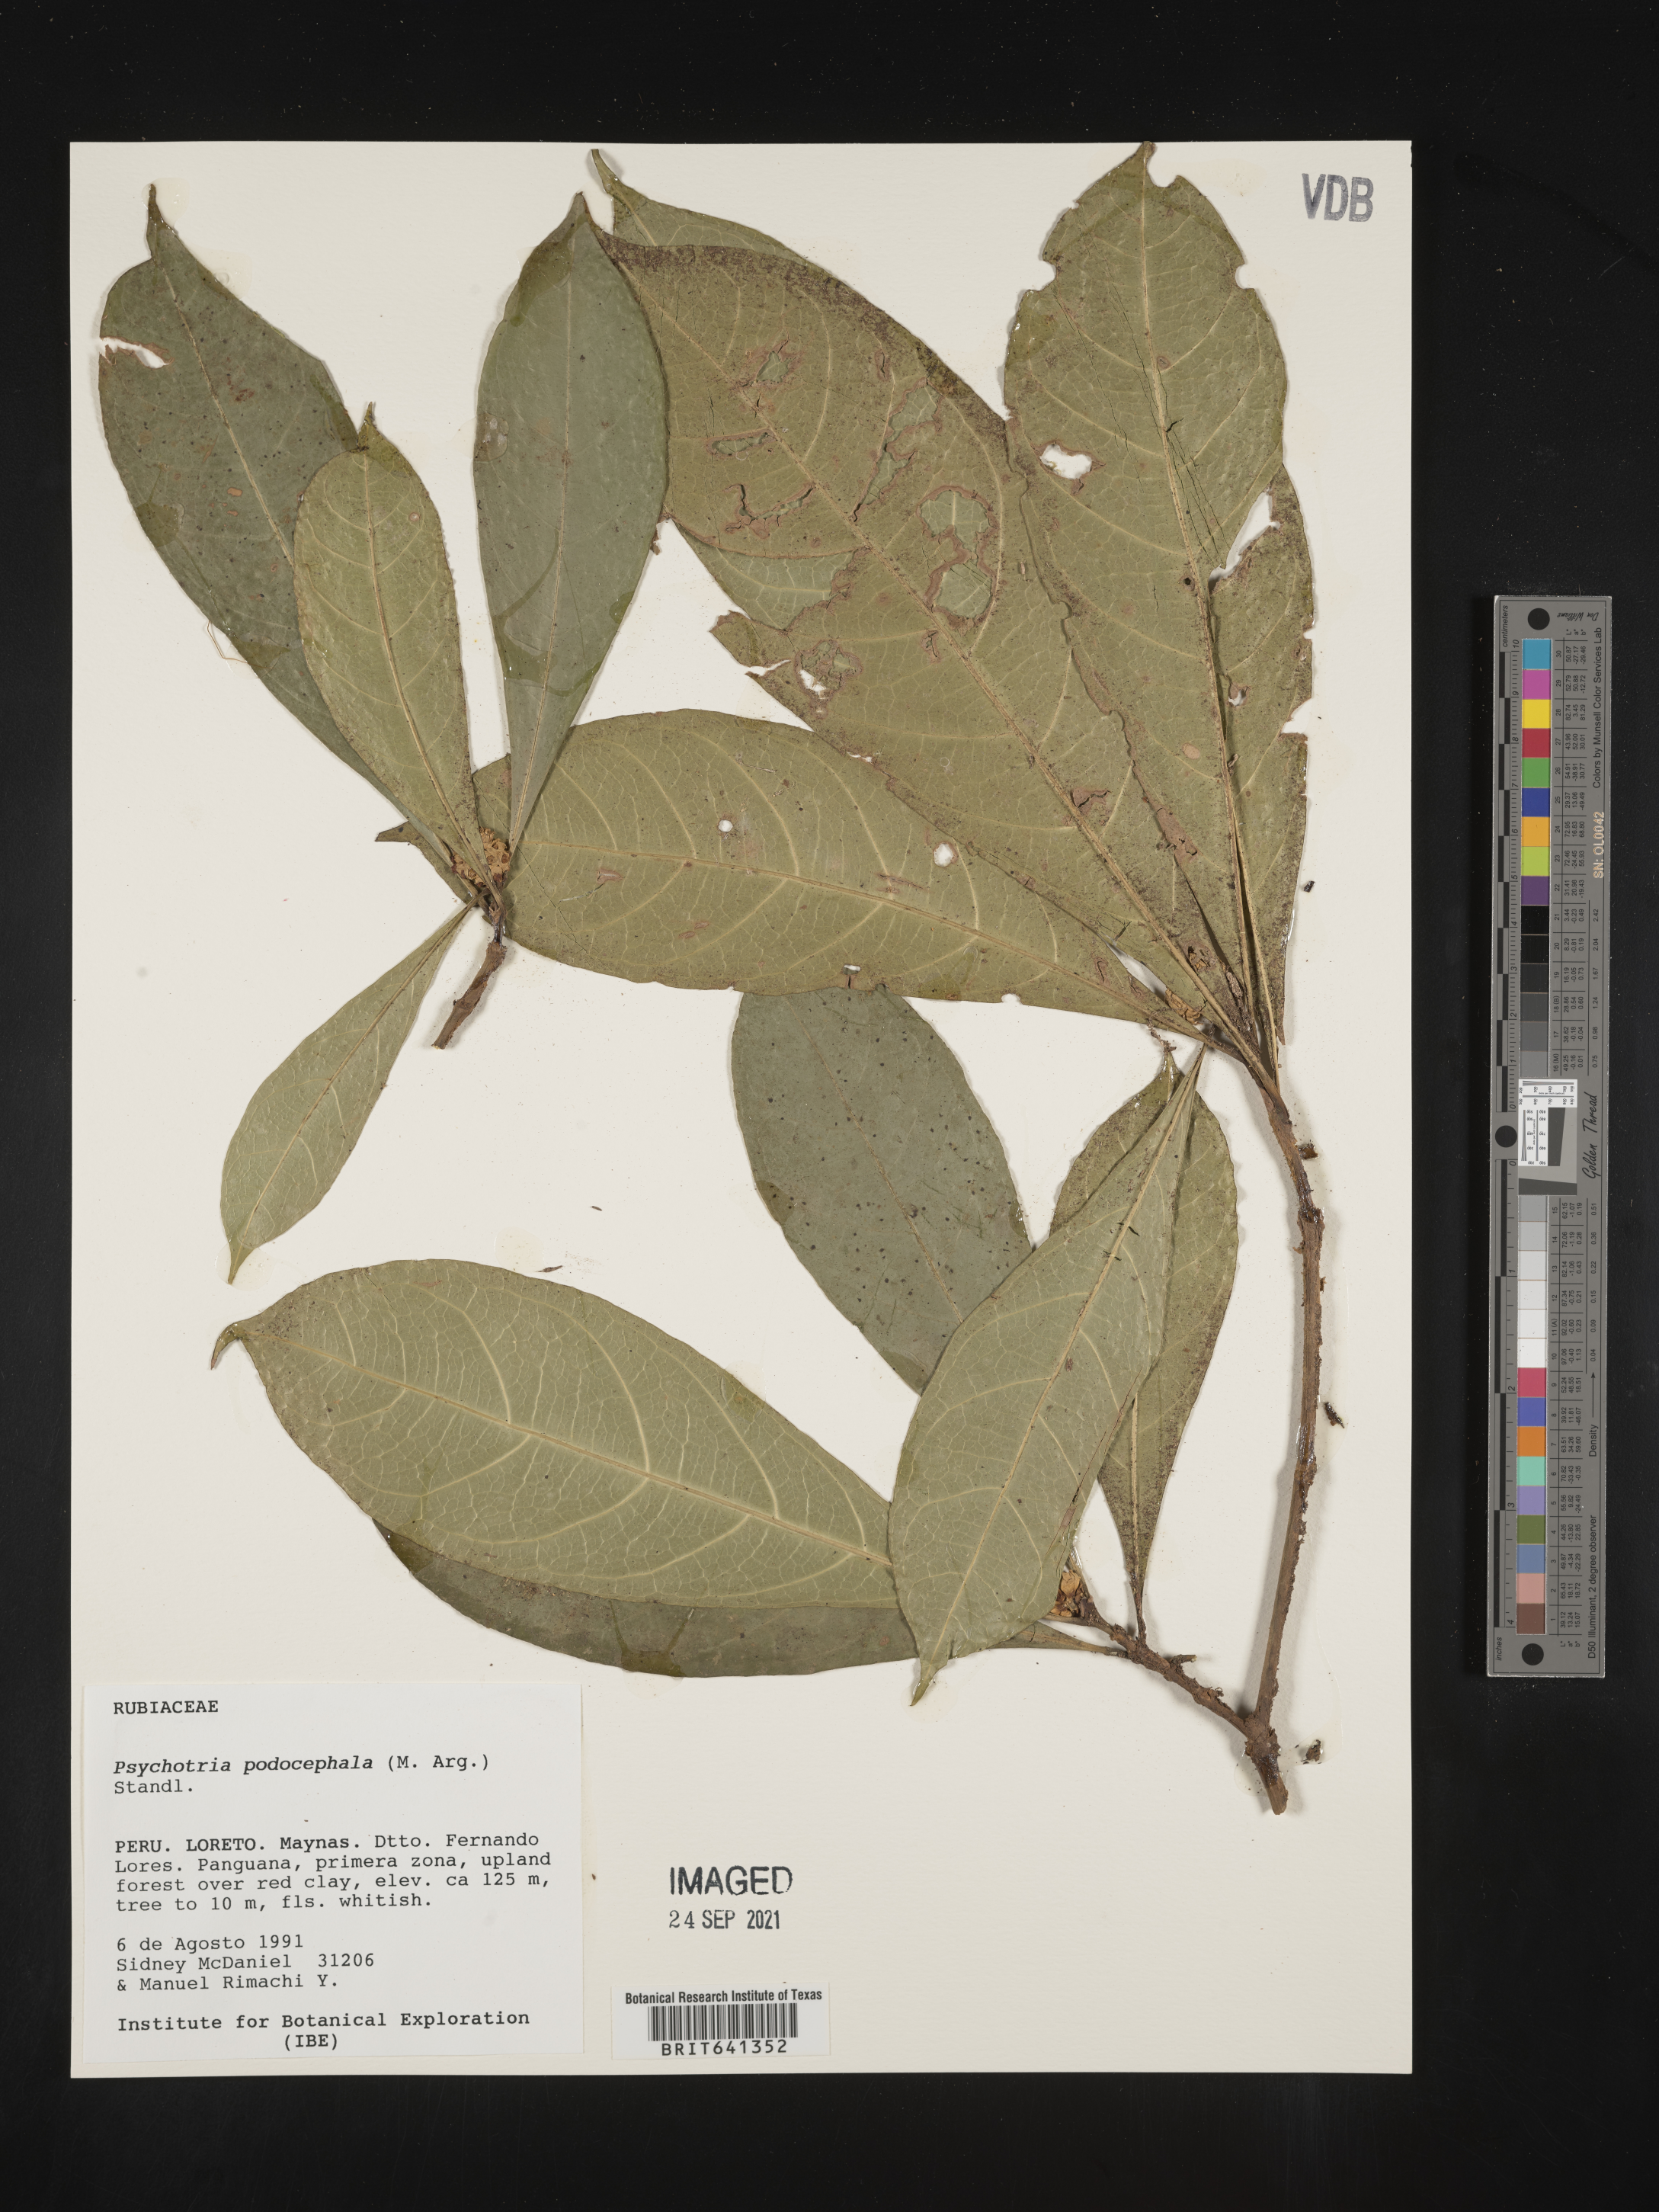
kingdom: Plantae
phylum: Tracheophyta
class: Magnoliopsida
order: Gentianales
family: Rubiaceae
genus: Psychotria
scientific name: Psychotria
